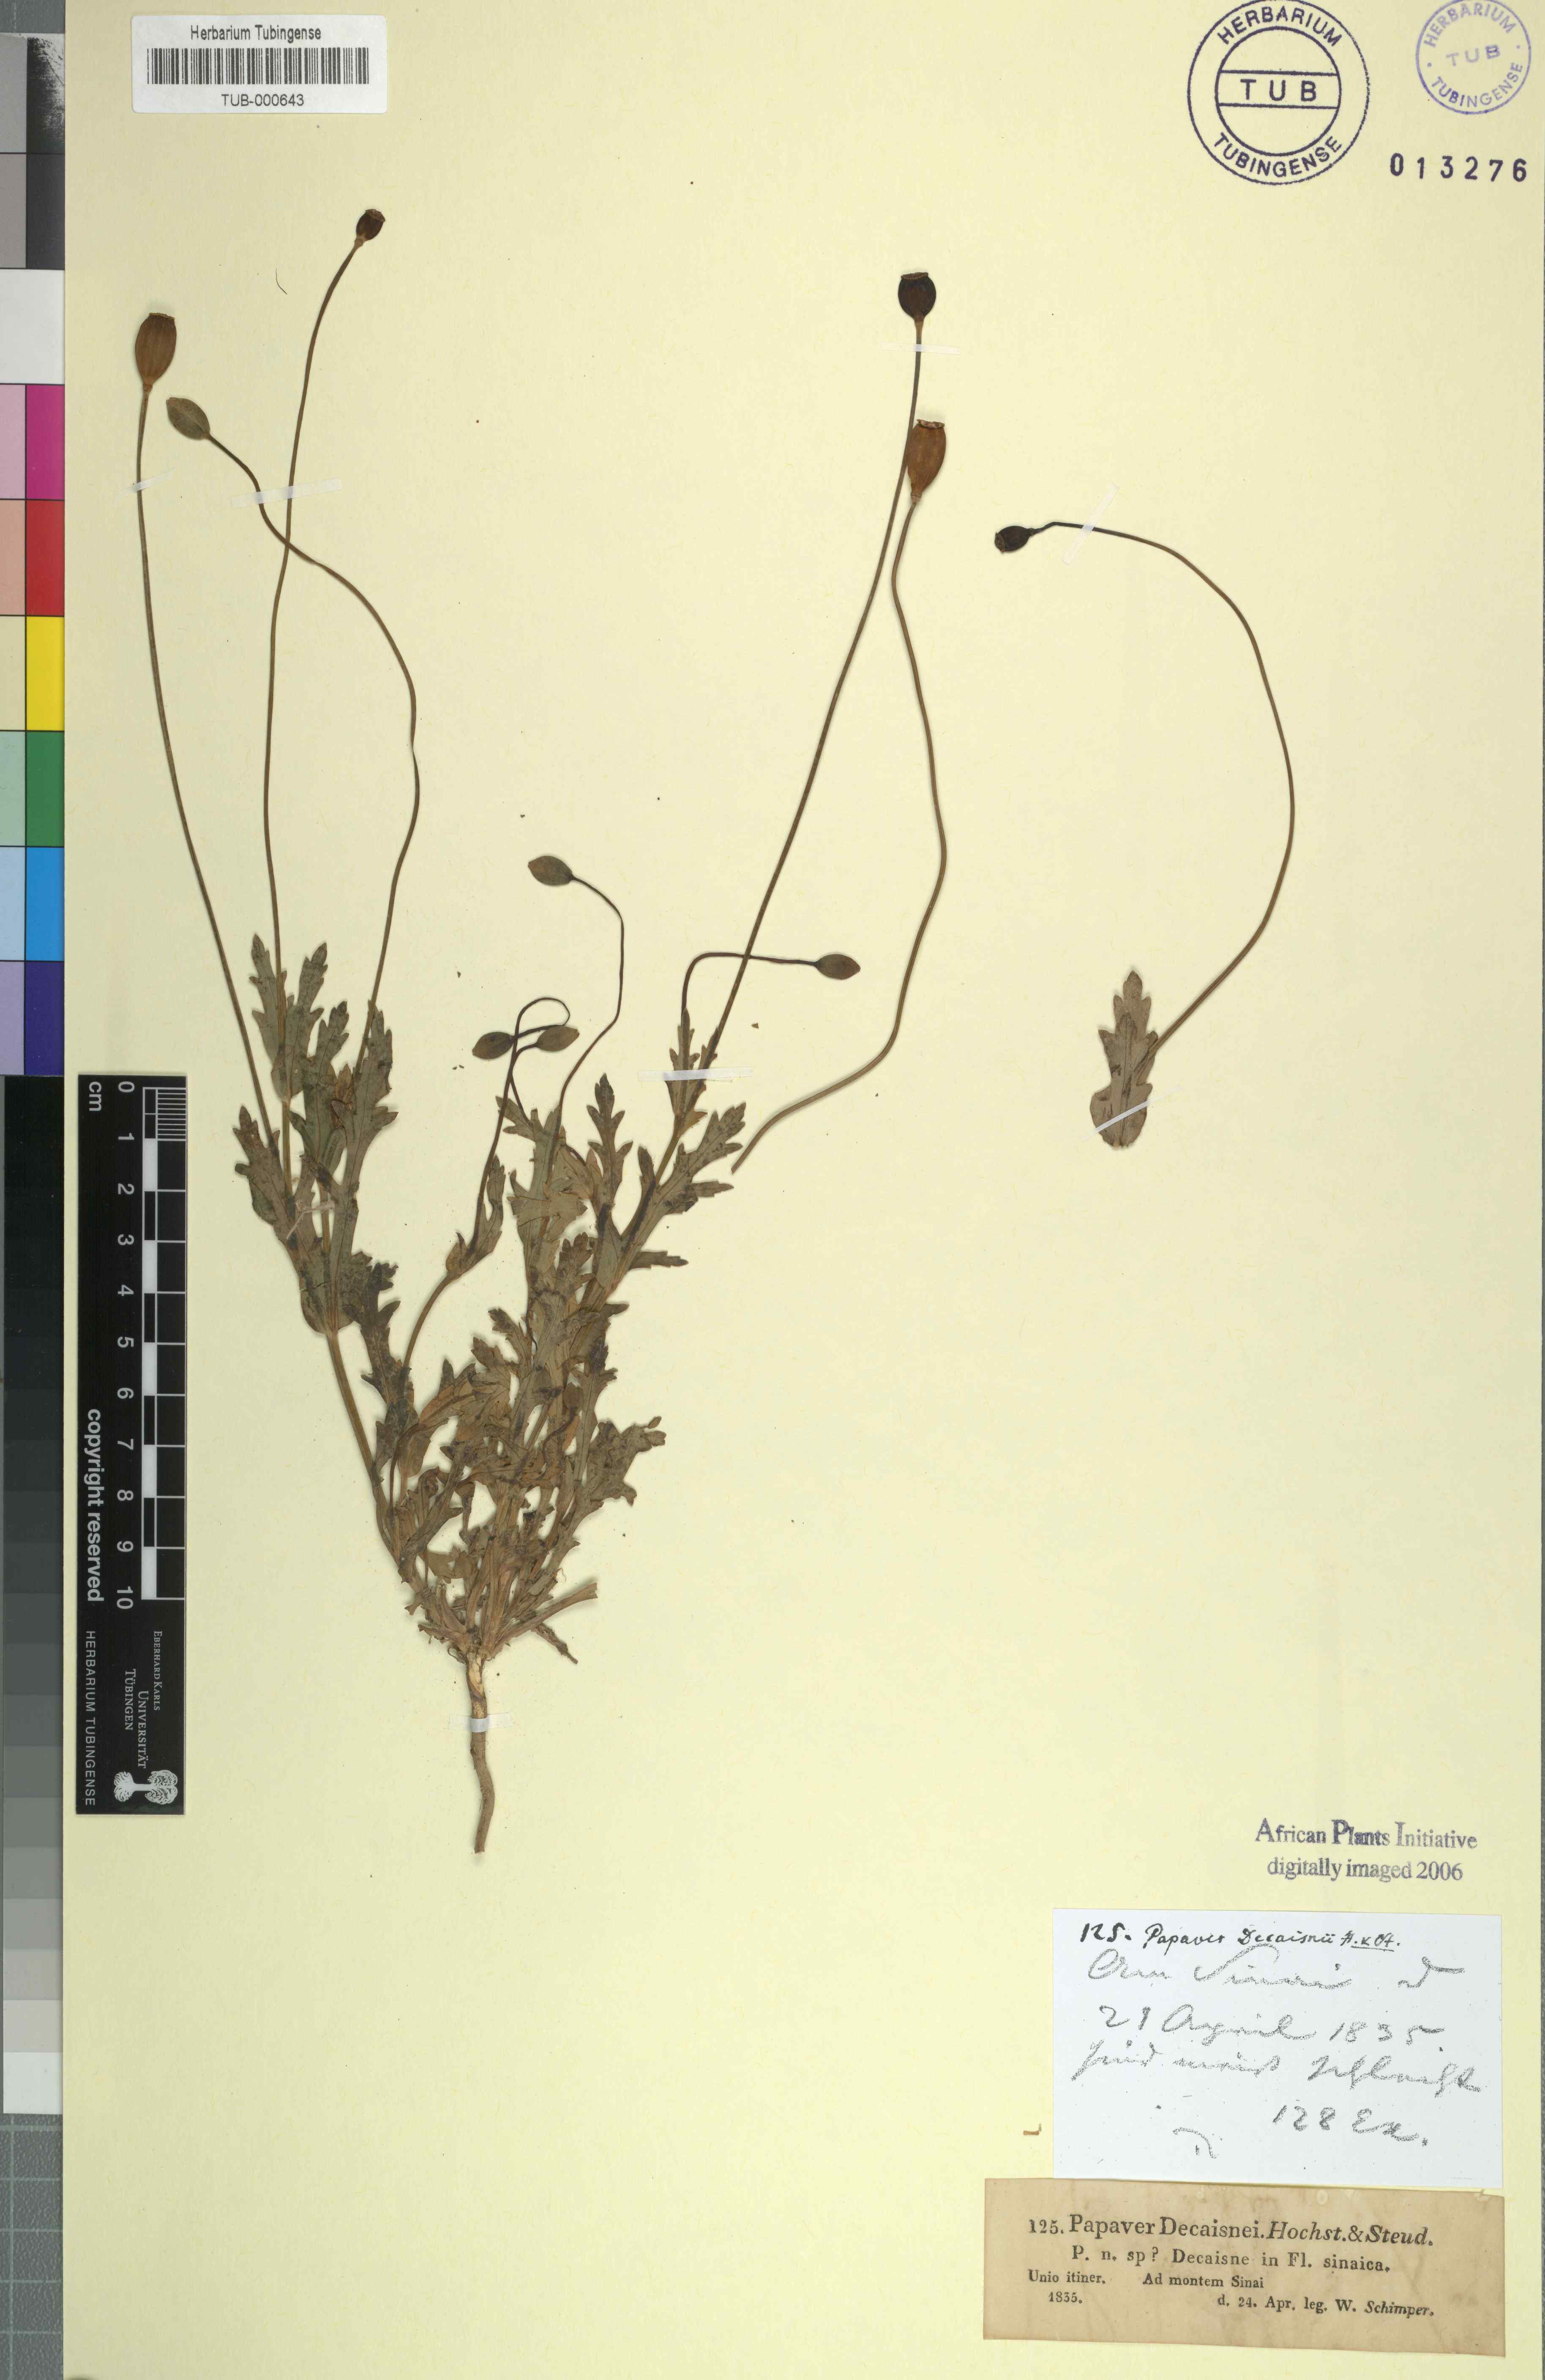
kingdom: Plantae
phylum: Tracheophyta
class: Magnoliopsida
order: Ranunculales
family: Papaveraceae
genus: Papaver
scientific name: Papaver decaisnei
